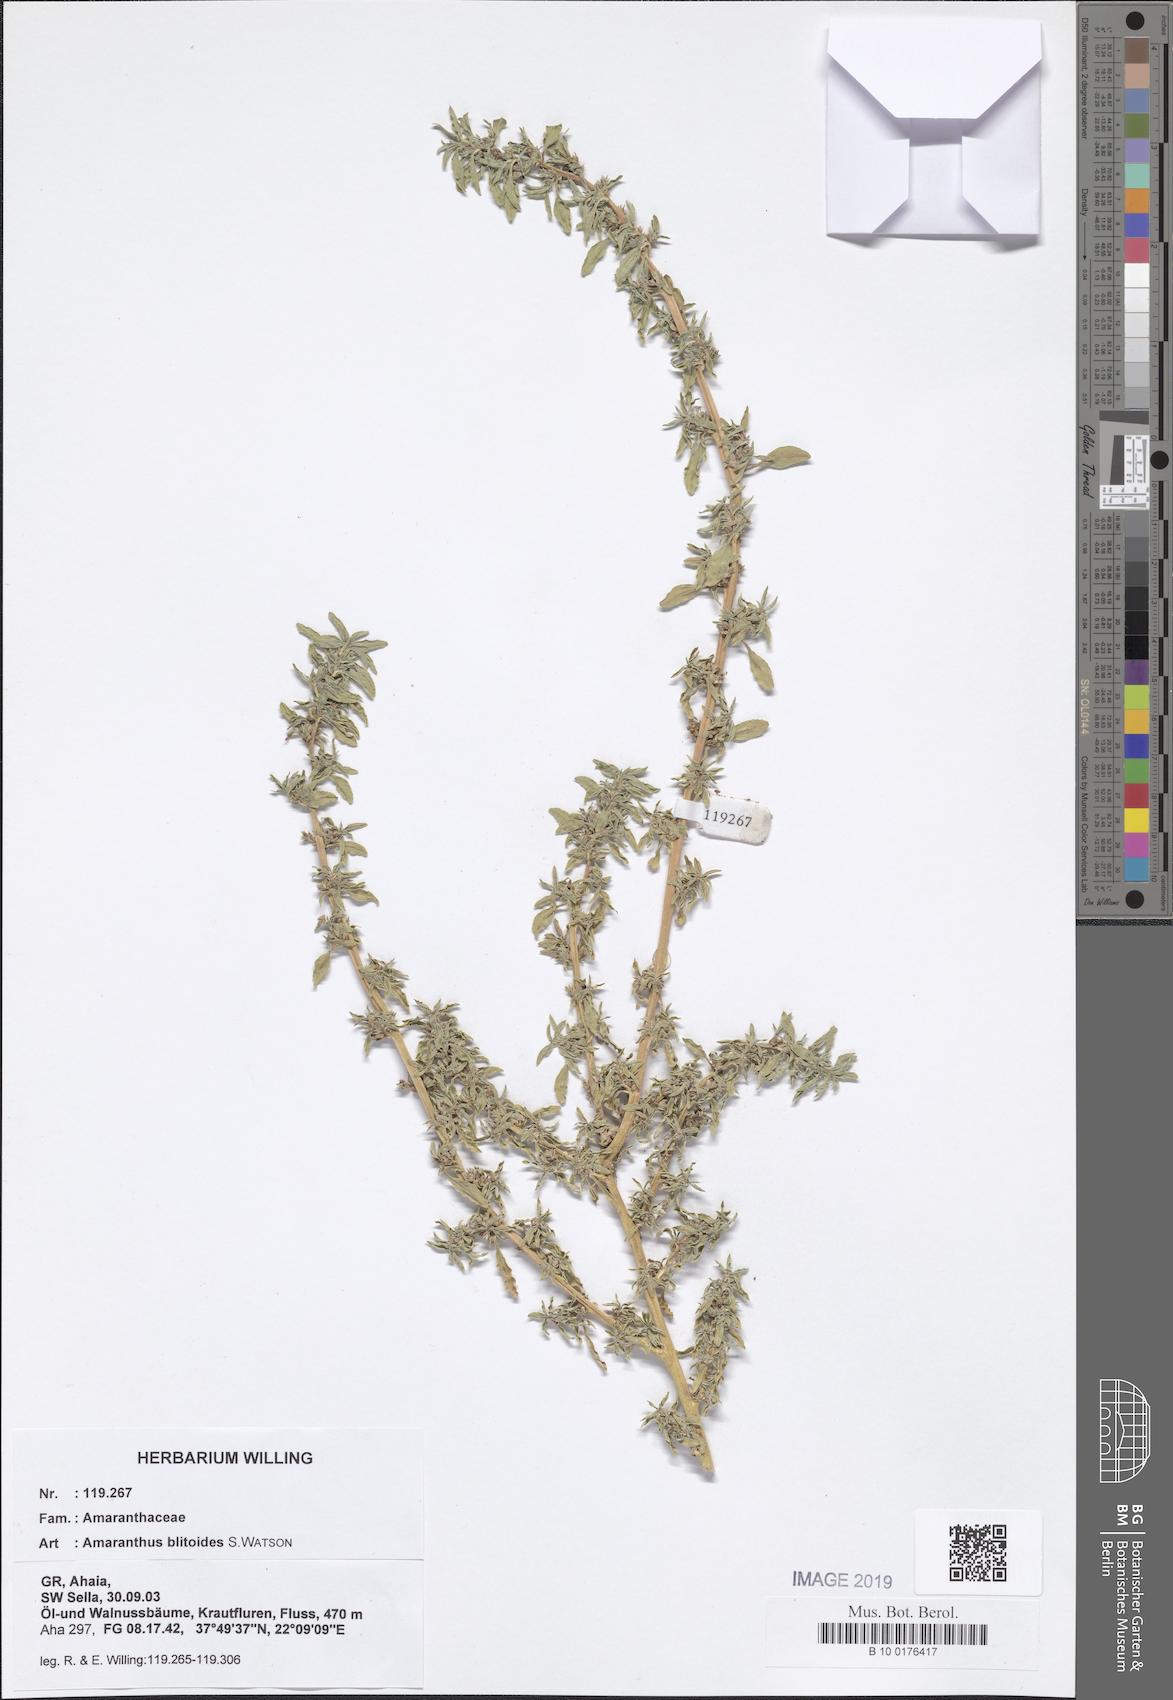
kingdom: Plantae
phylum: Tracheophyta
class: Magnoliopsida
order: Caryophyllales
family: Amaranthaceae
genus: Amaranthus
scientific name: Amaranthus blitoides
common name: Prostrate pigweed
